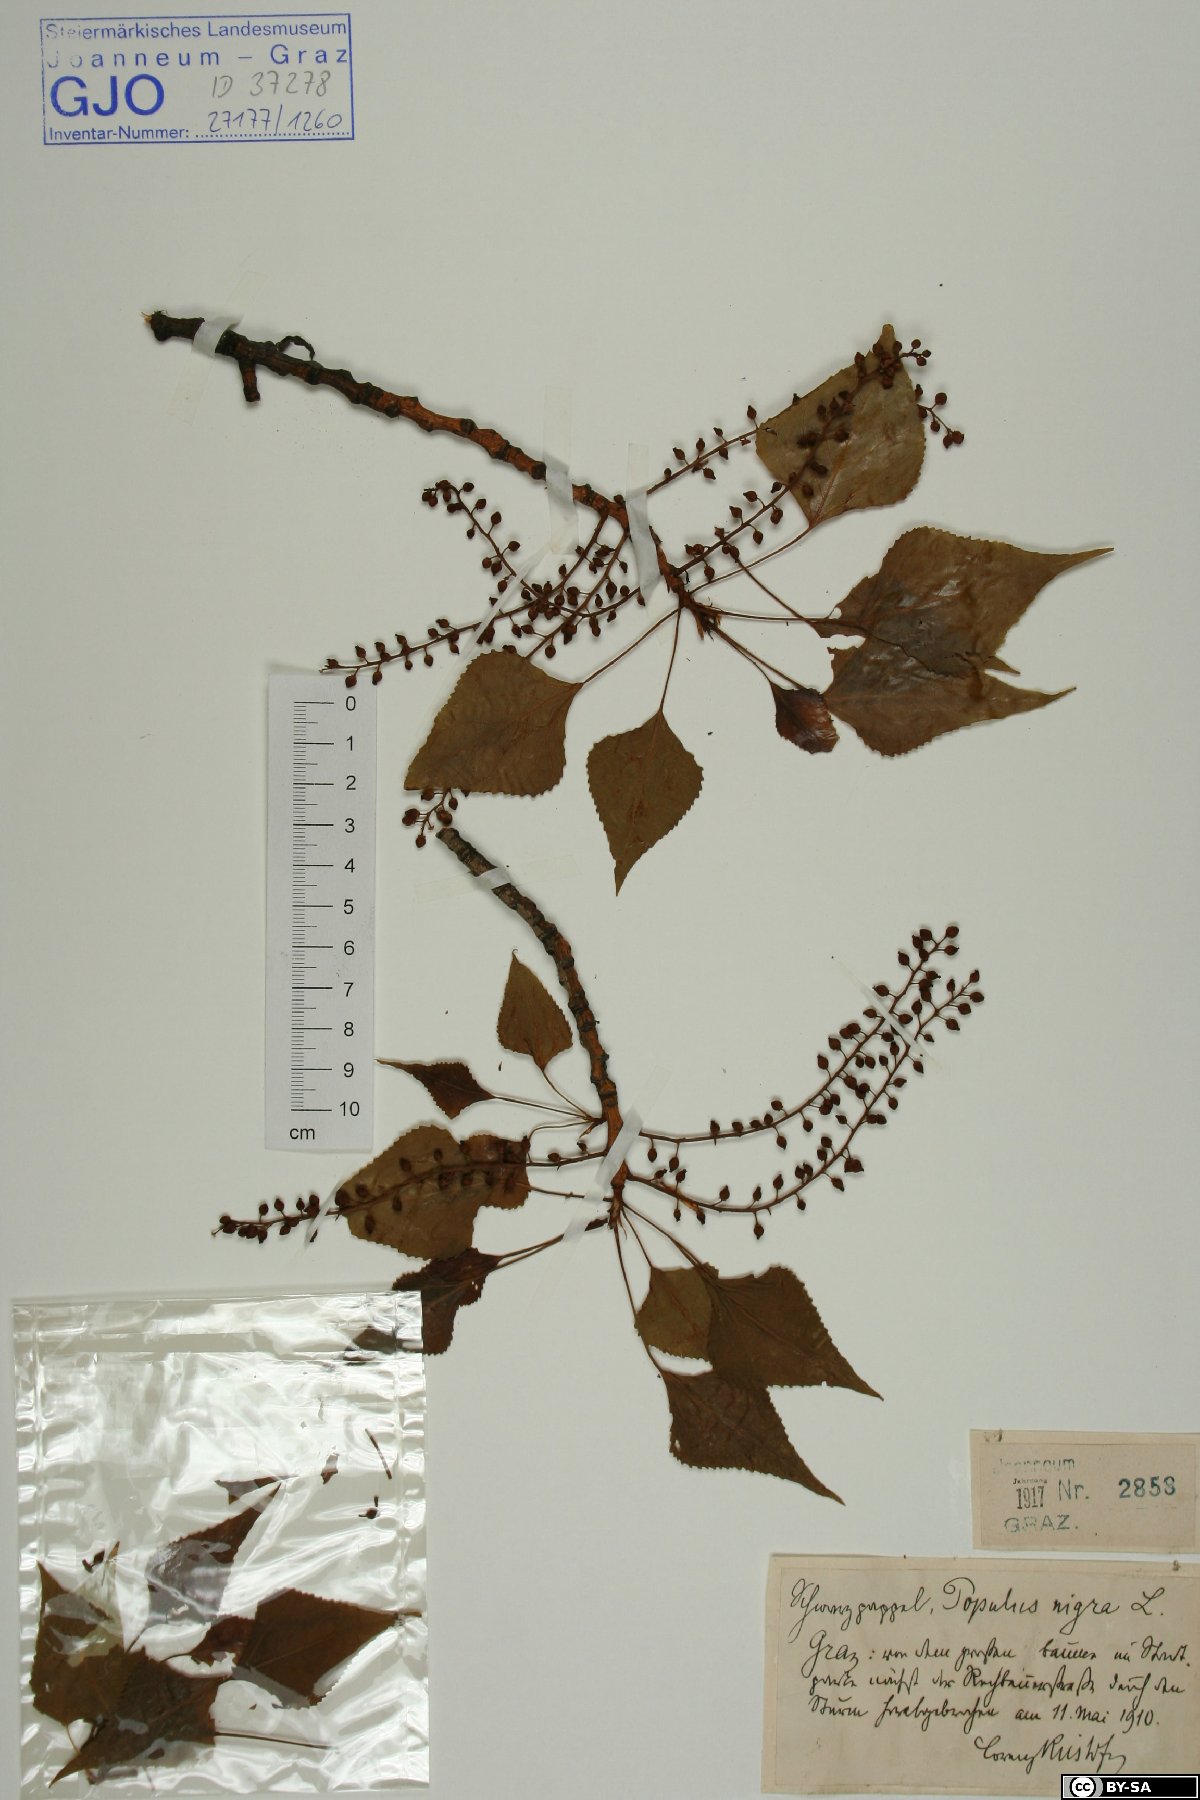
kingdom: Plantae
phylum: Tracheophyta
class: Magnoliopsida
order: Malpighiales
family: Salicaceae
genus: Populus
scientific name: Populus nigra
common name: Black poplar
